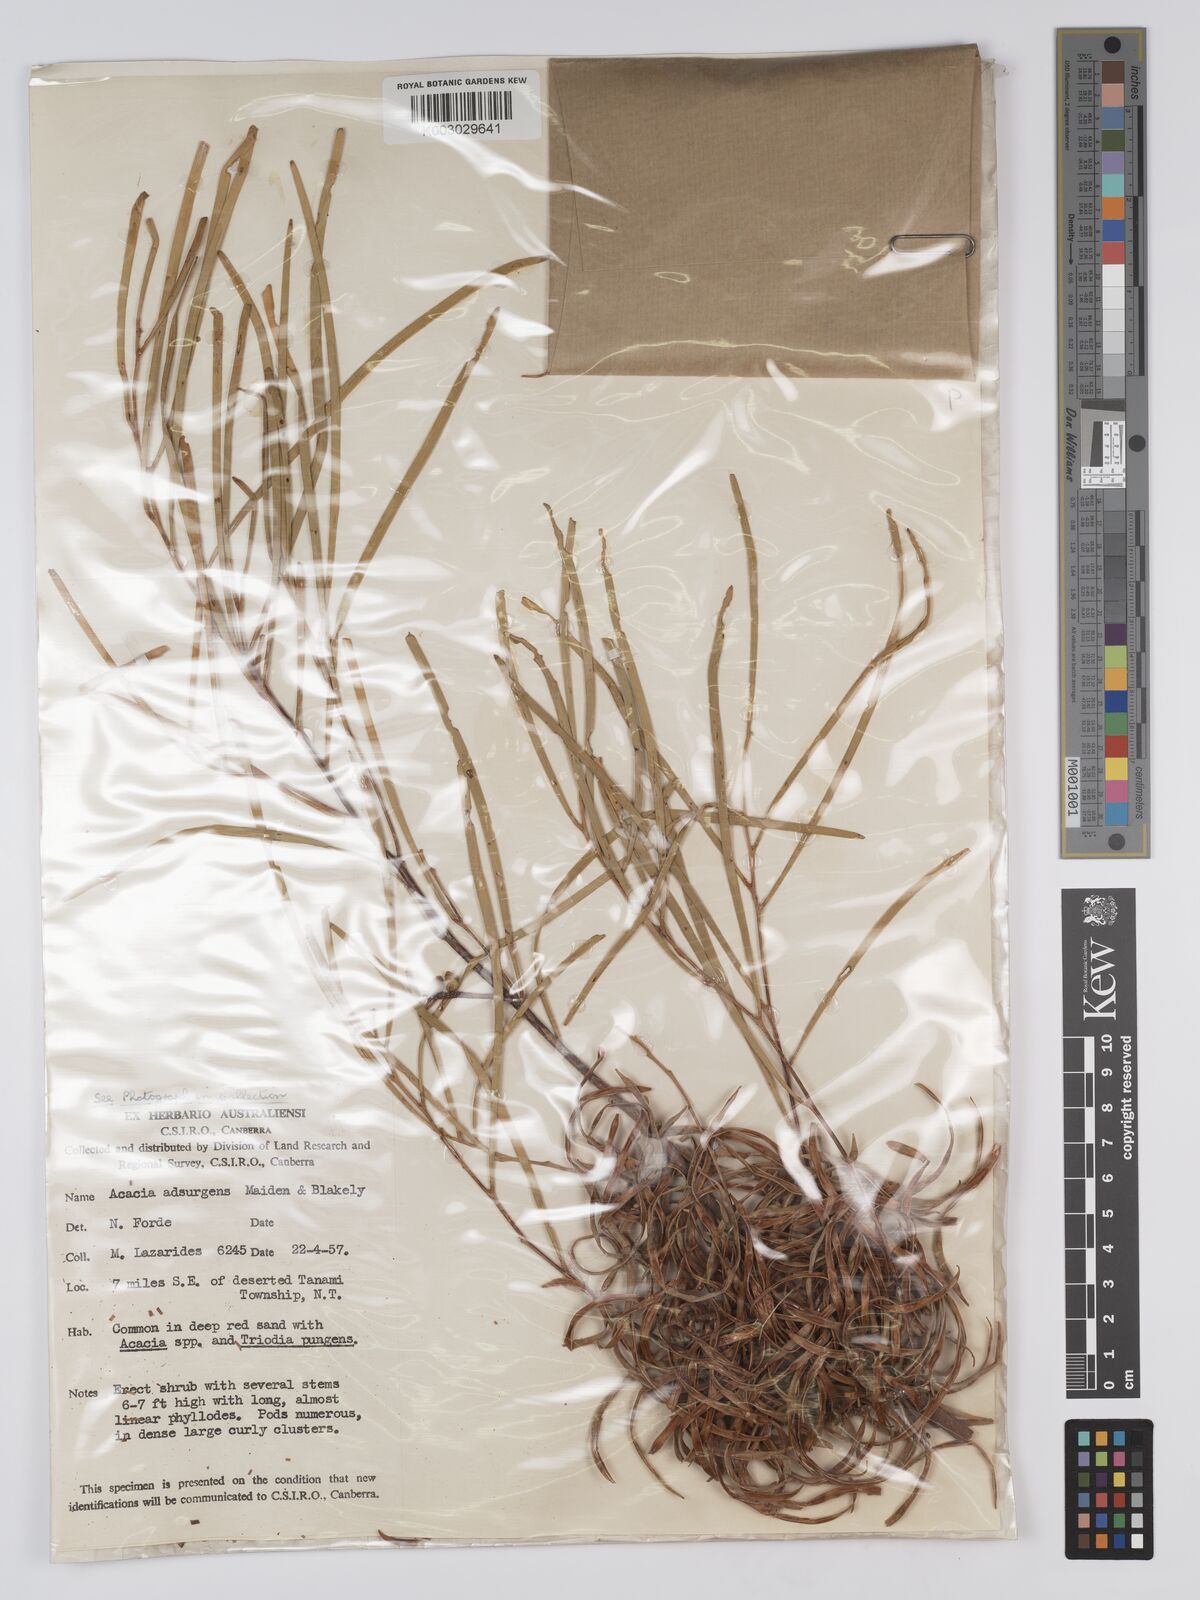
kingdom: Plantae
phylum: Tracheophyta
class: Magnoliopsida
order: Fabales
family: Fabaceae
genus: Acacia
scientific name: Acacia adsurgens
